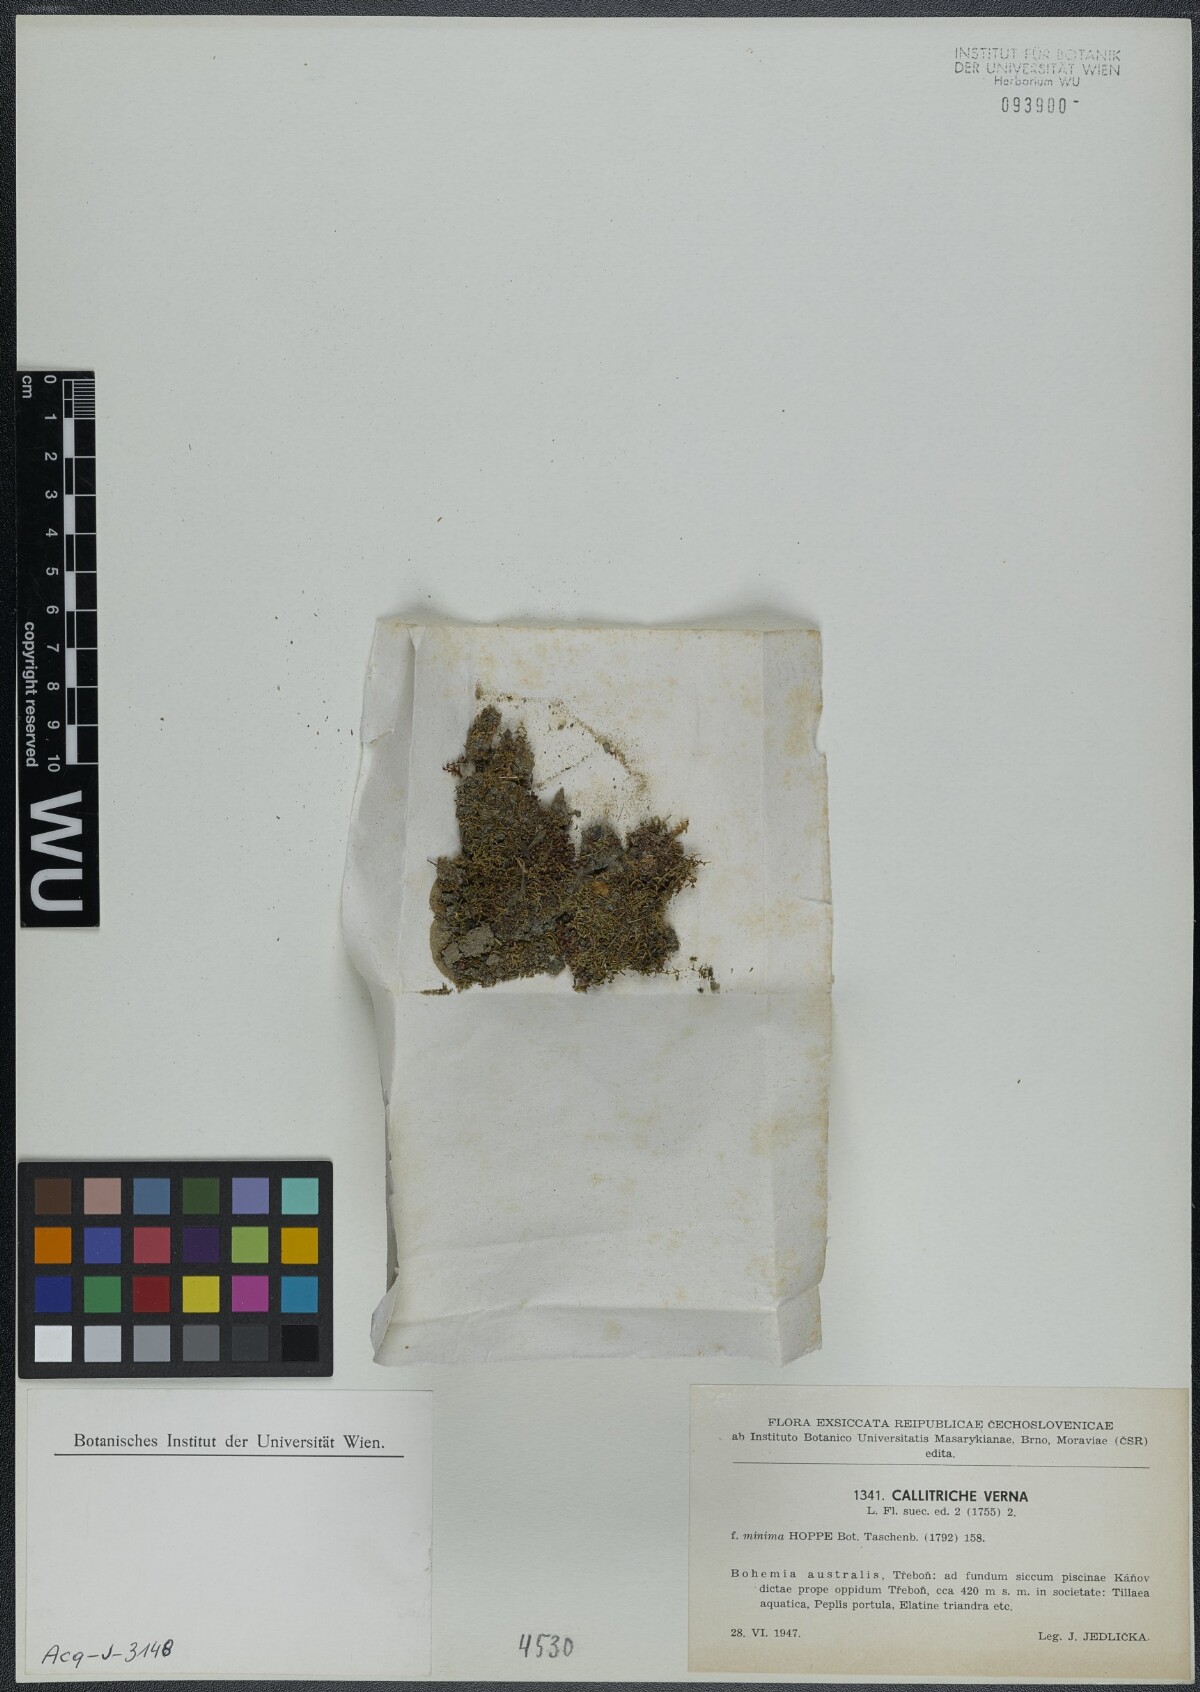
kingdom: Plantae
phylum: Tracheophyta
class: Magnoliopsida
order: Lamiales
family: Plantaginaceae
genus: Callitriche
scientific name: Callitriche palustris
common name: Spring water-starwort
